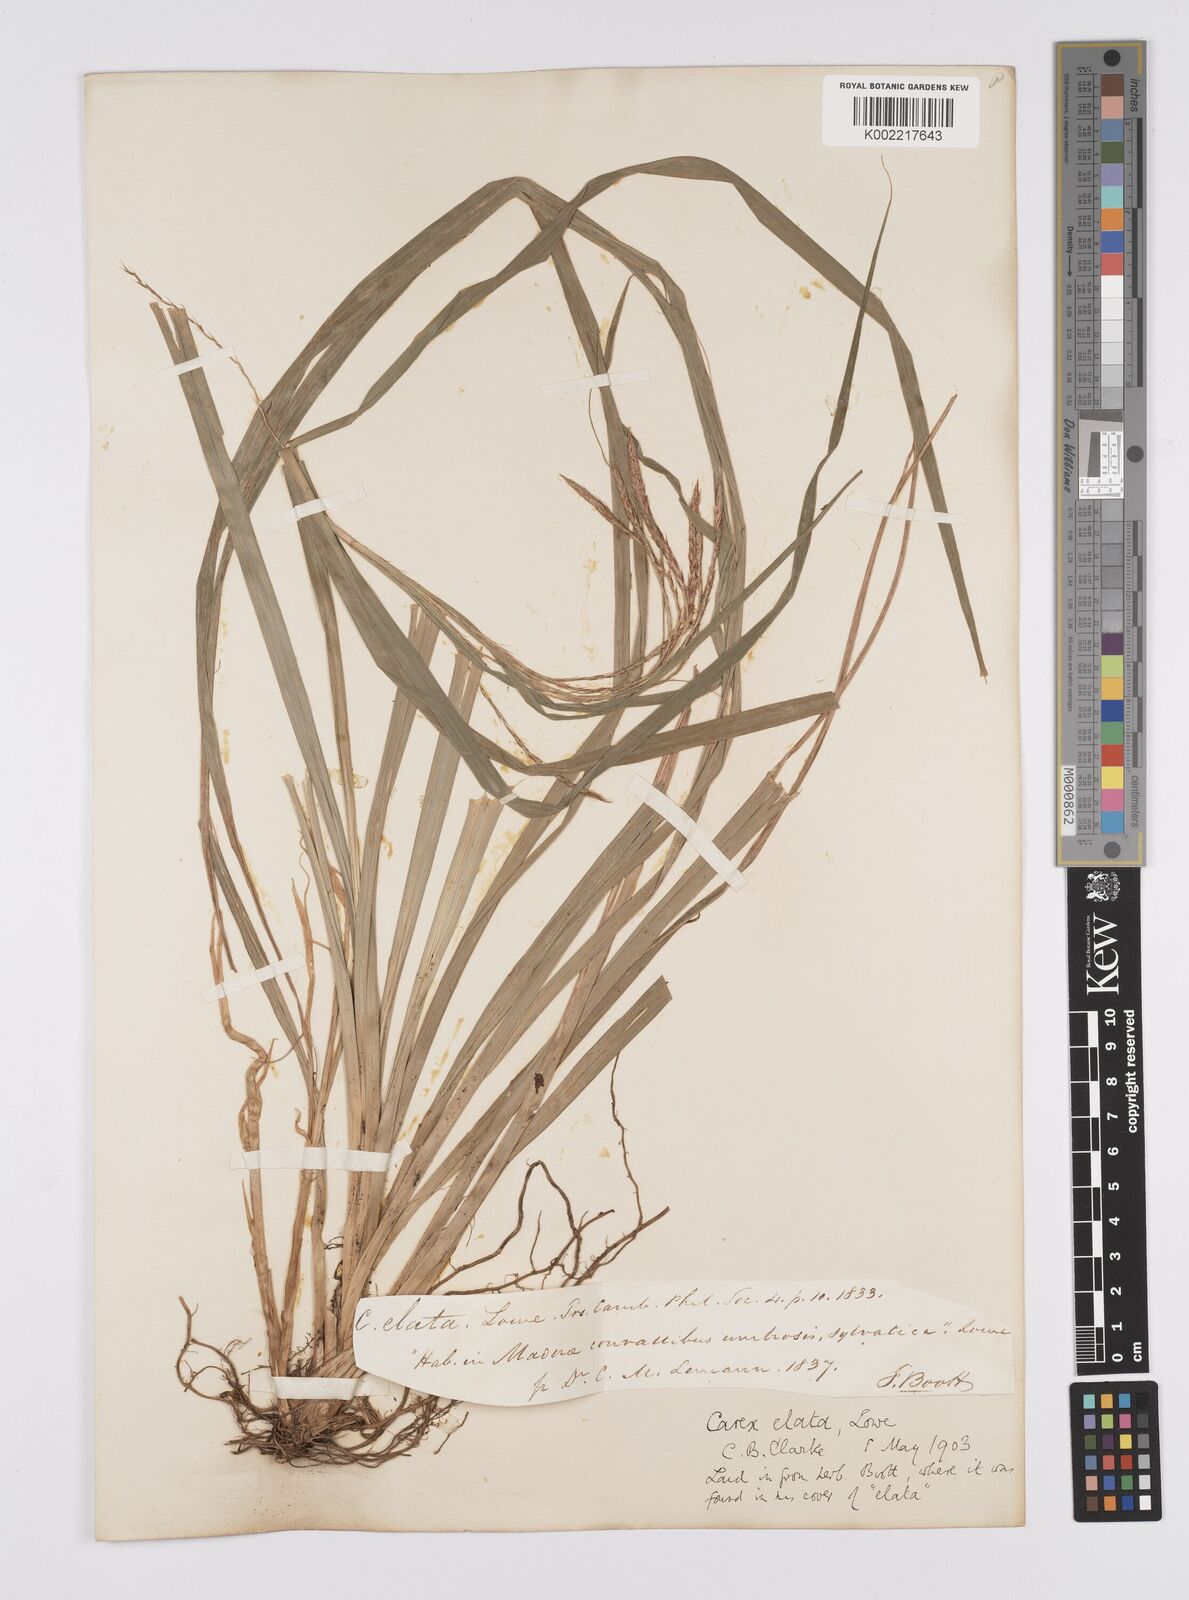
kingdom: Plantae
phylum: Tracheophyta
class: Liliopsida
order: Poales
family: Cyperaceae
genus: Carex
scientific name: Carex lowei
